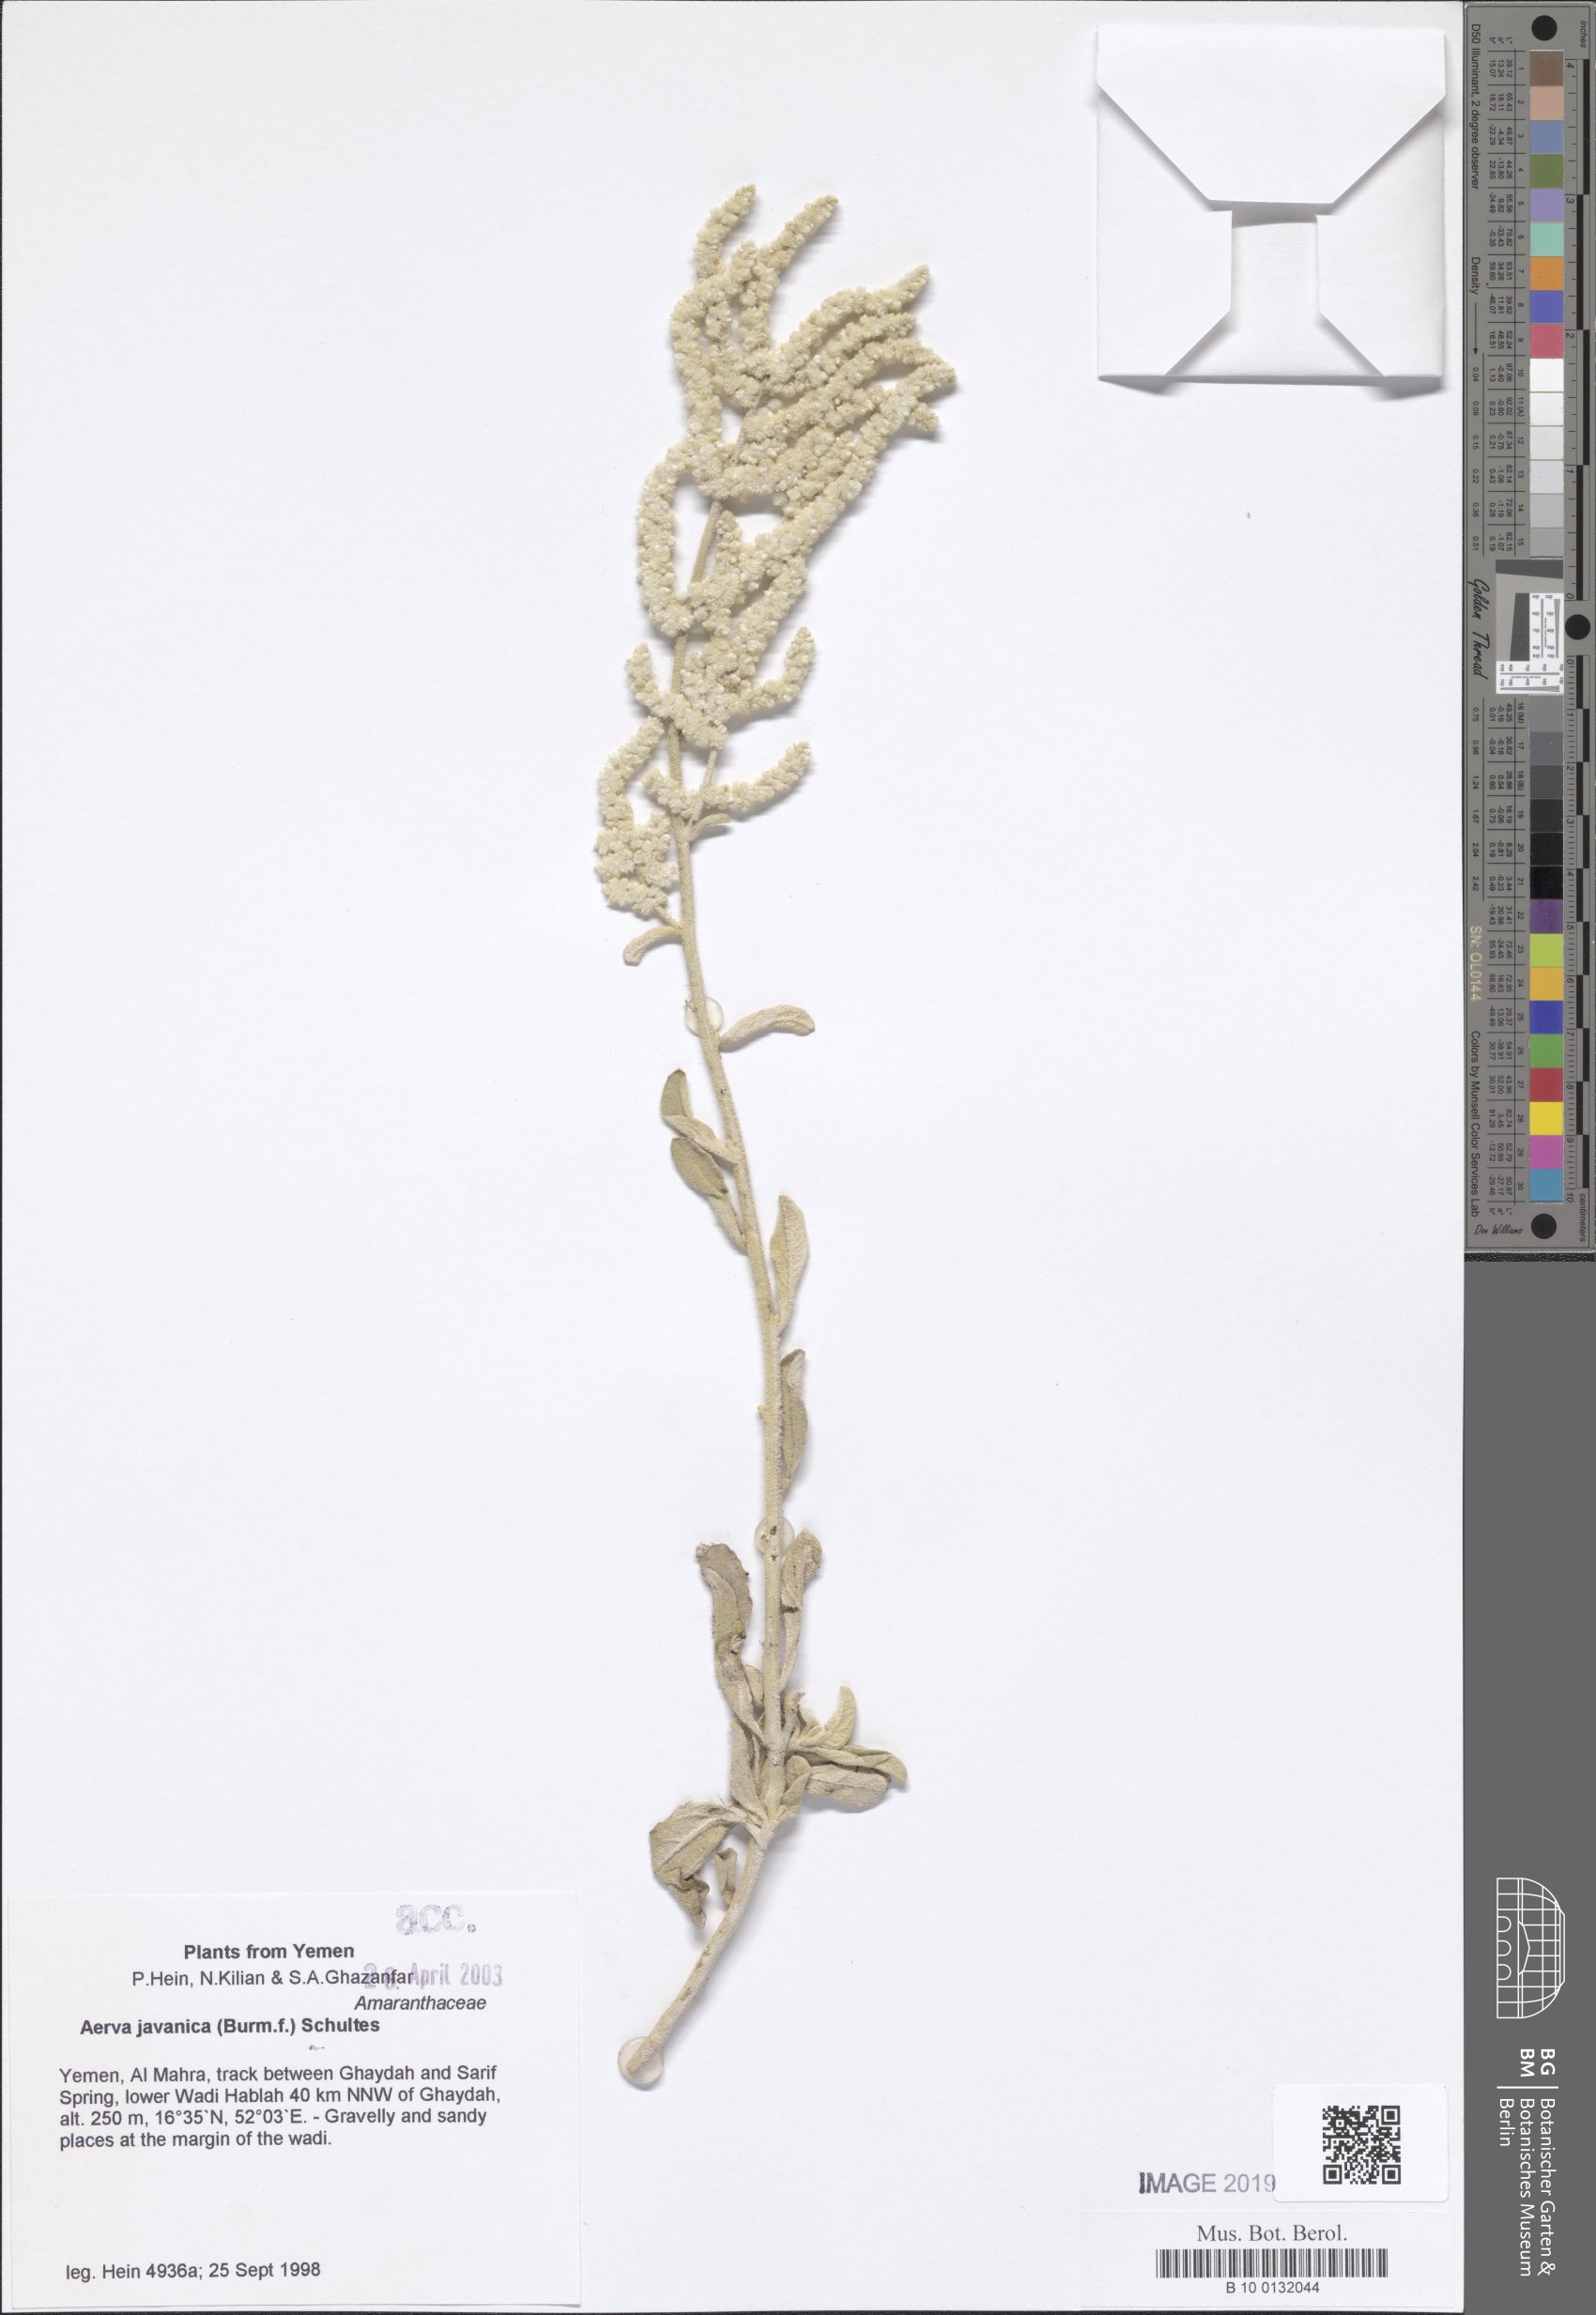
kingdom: Plantae
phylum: Tracheophyta
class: Magnoliopsida
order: Caryophyllales
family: Amaranthaceae
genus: Aerva
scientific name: Aerva javanica
